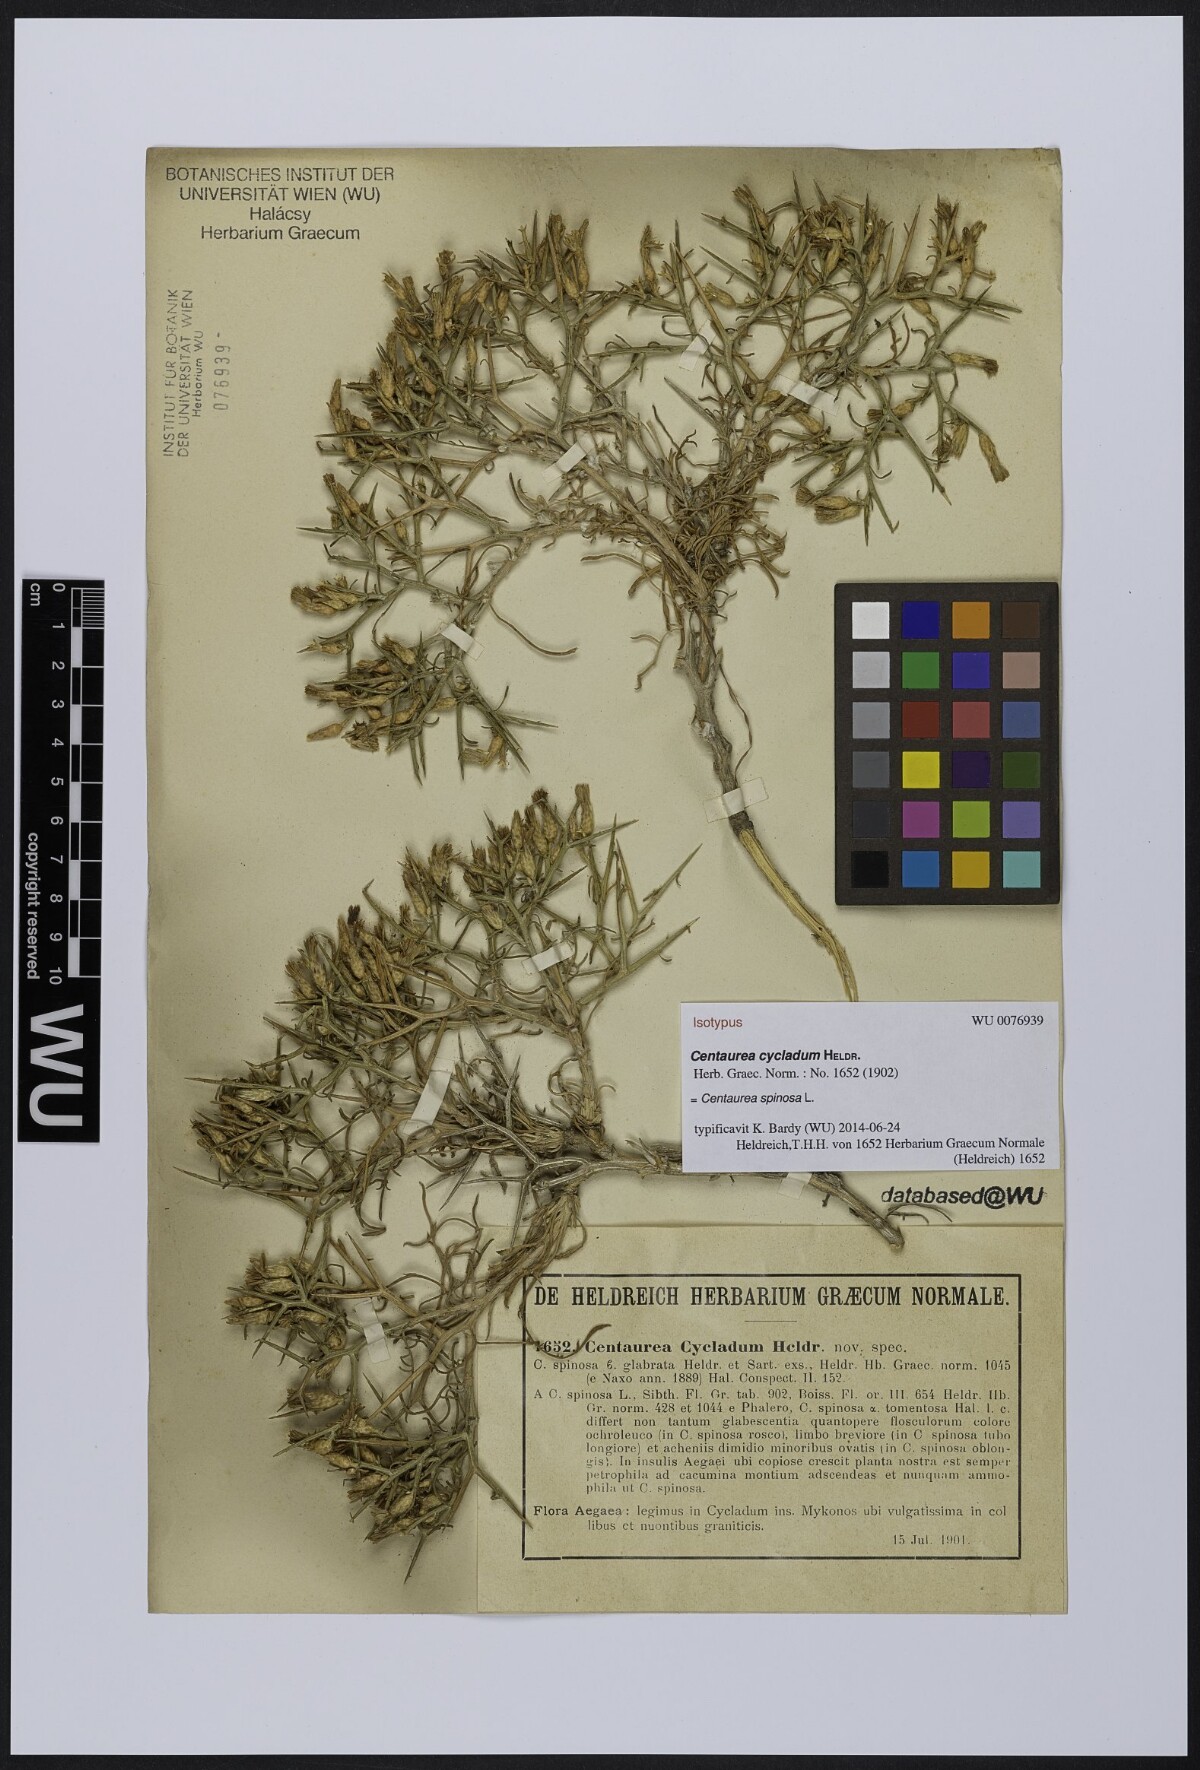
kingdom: Plantae
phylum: Tracheophyta
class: Magnoliopsida
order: Asterales
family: Asteraceae
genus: Centaurea
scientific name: Centaurea spinosa
